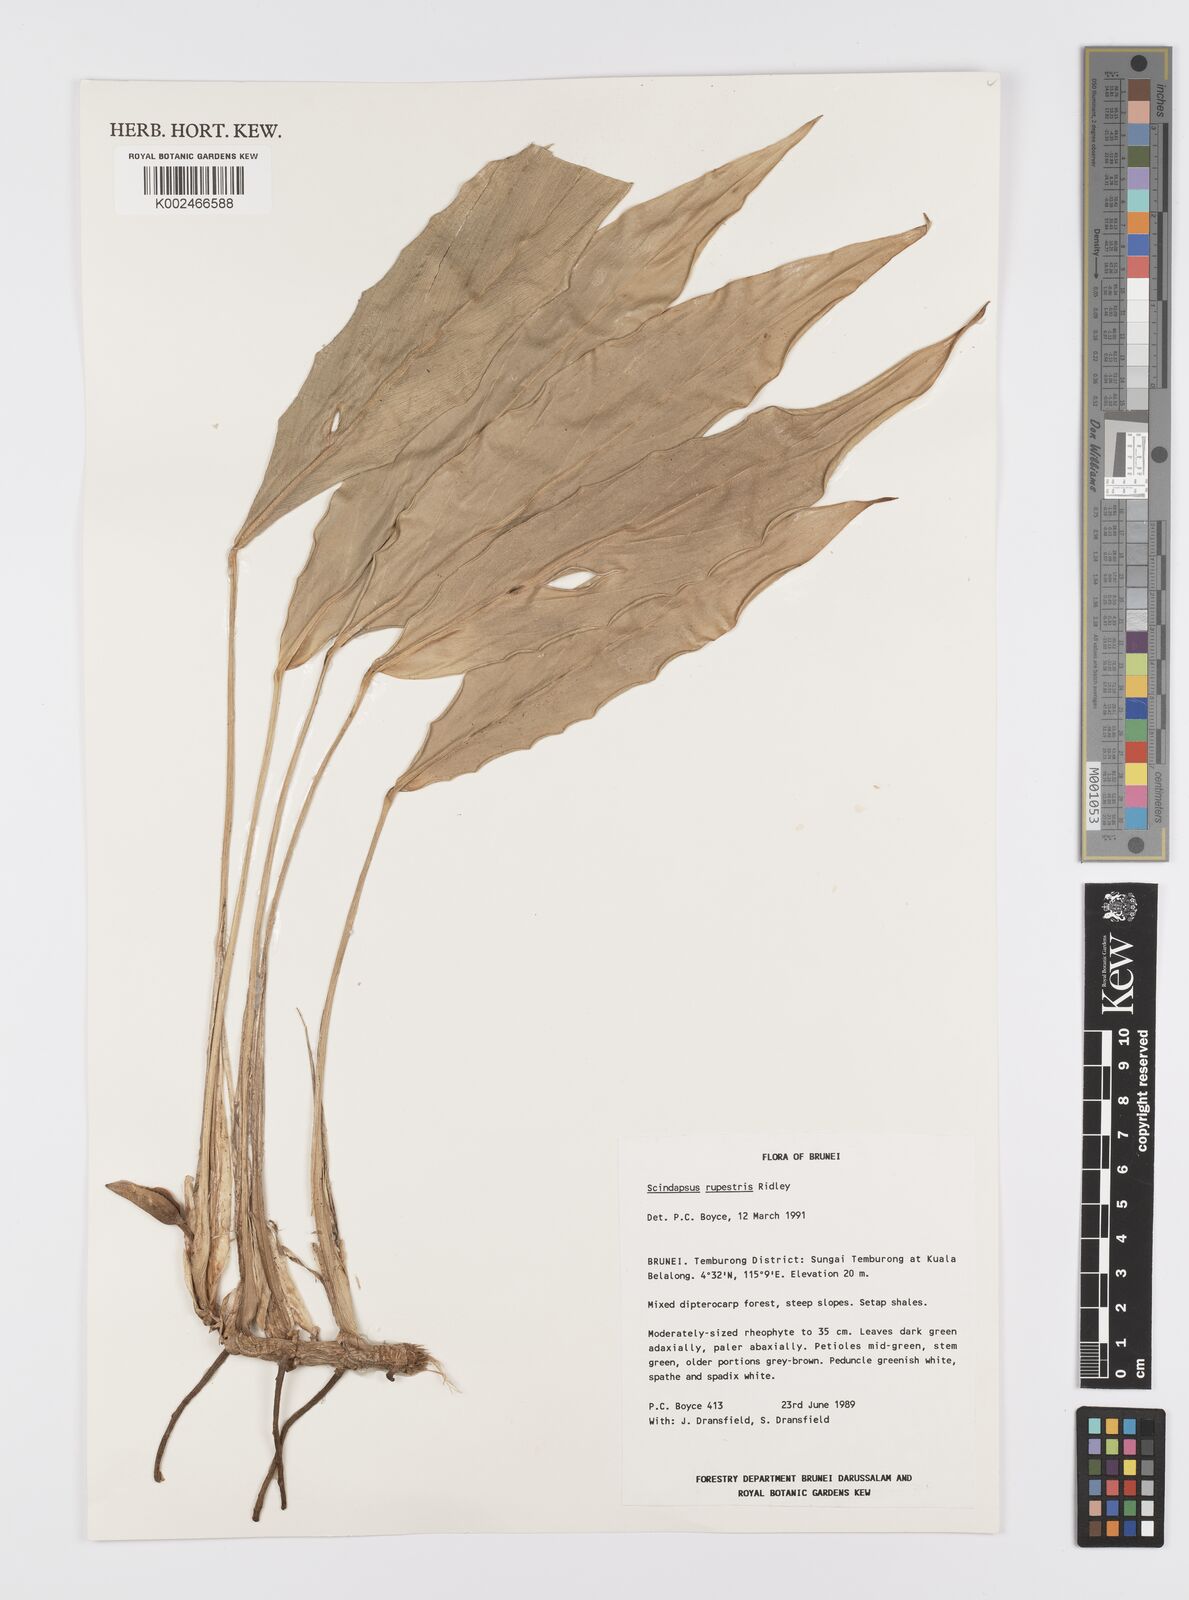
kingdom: Plantae
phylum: Tracheophyta
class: Liliopsida
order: Alismatales
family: Araceae
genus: Scindapsus
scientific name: Scindapsus sumatranus
